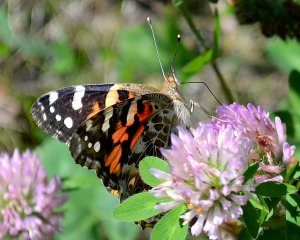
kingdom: Animalia
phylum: Arthropoda
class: Insecta
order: Lepidoptera
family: Nymphalidae
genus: Vanessa
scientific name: Vanessa cardui
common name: Painted Lady
